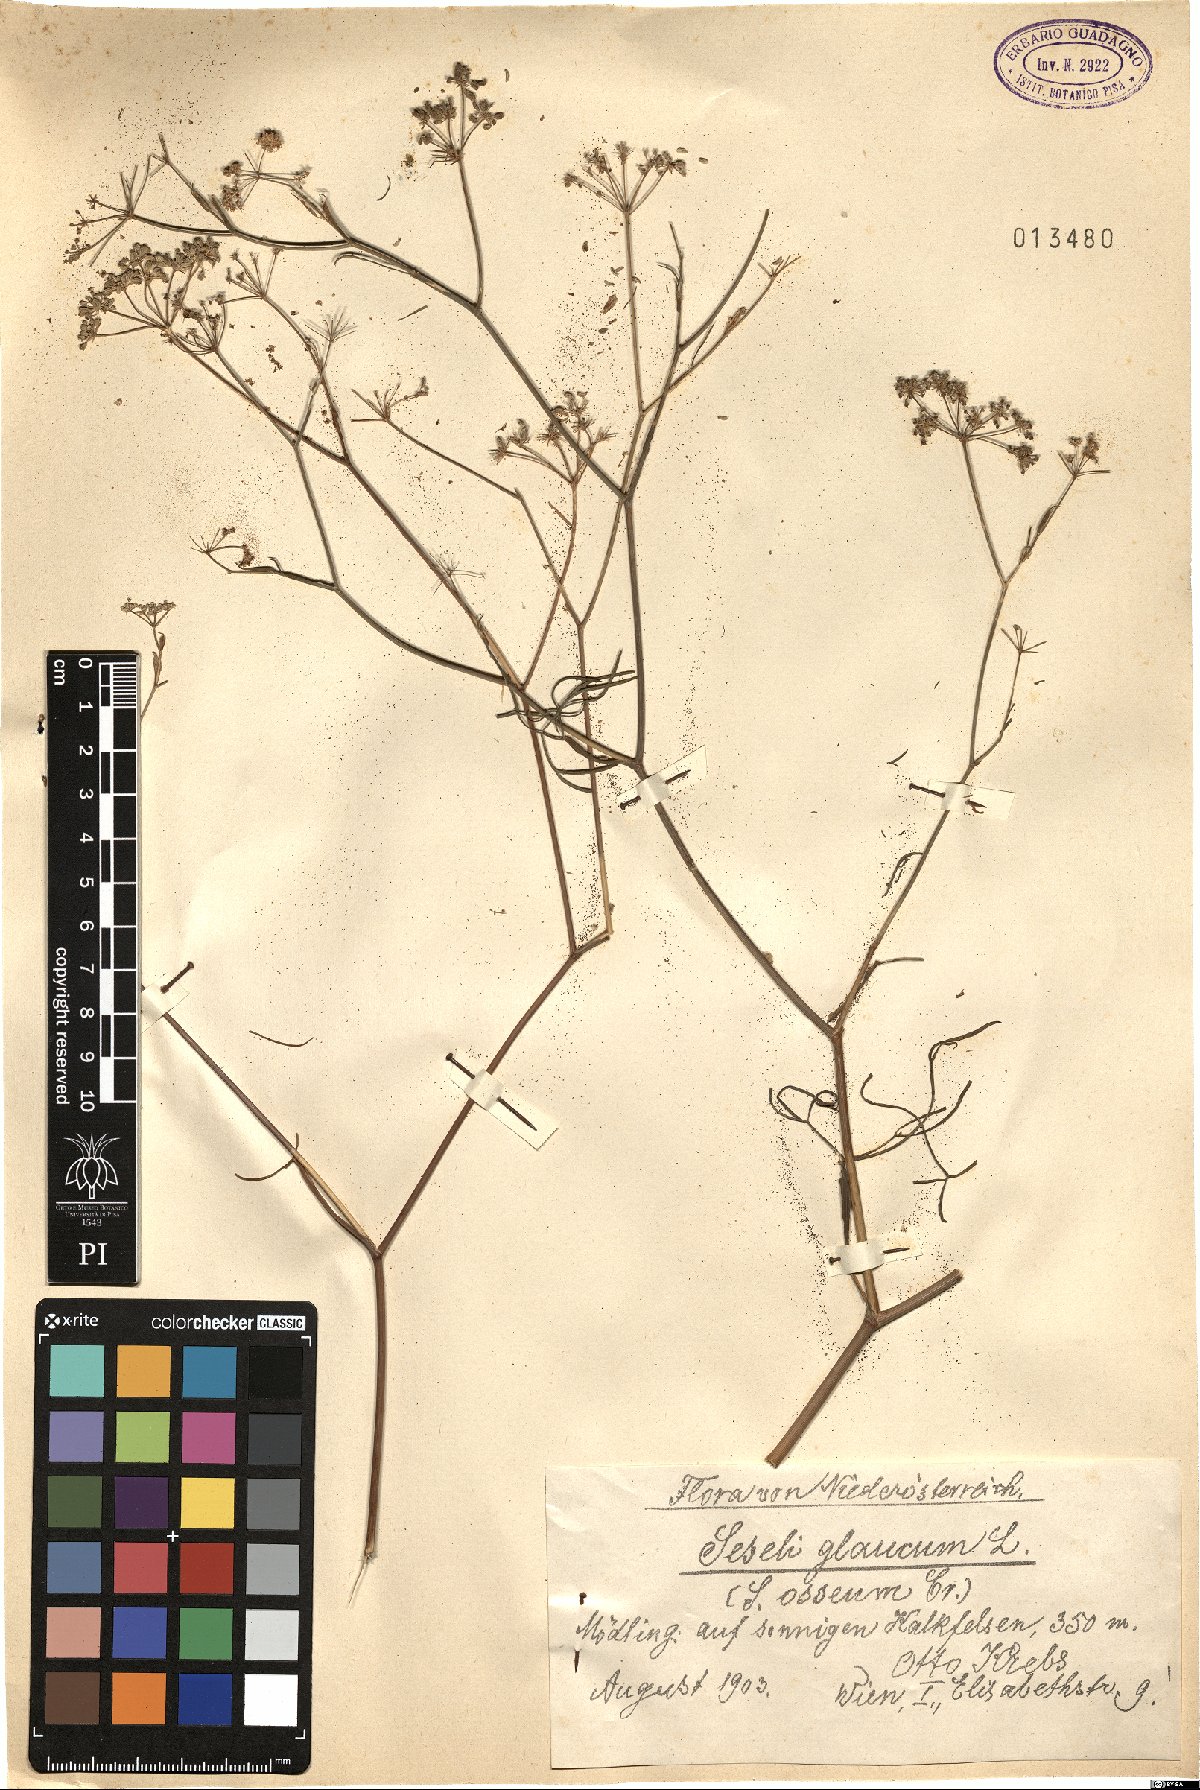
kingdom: Plantae
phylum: Tracheophyta
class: Magnoliopsida
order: Apiales
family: Apiaceae
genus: Seseli
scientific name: Seseli montanum
